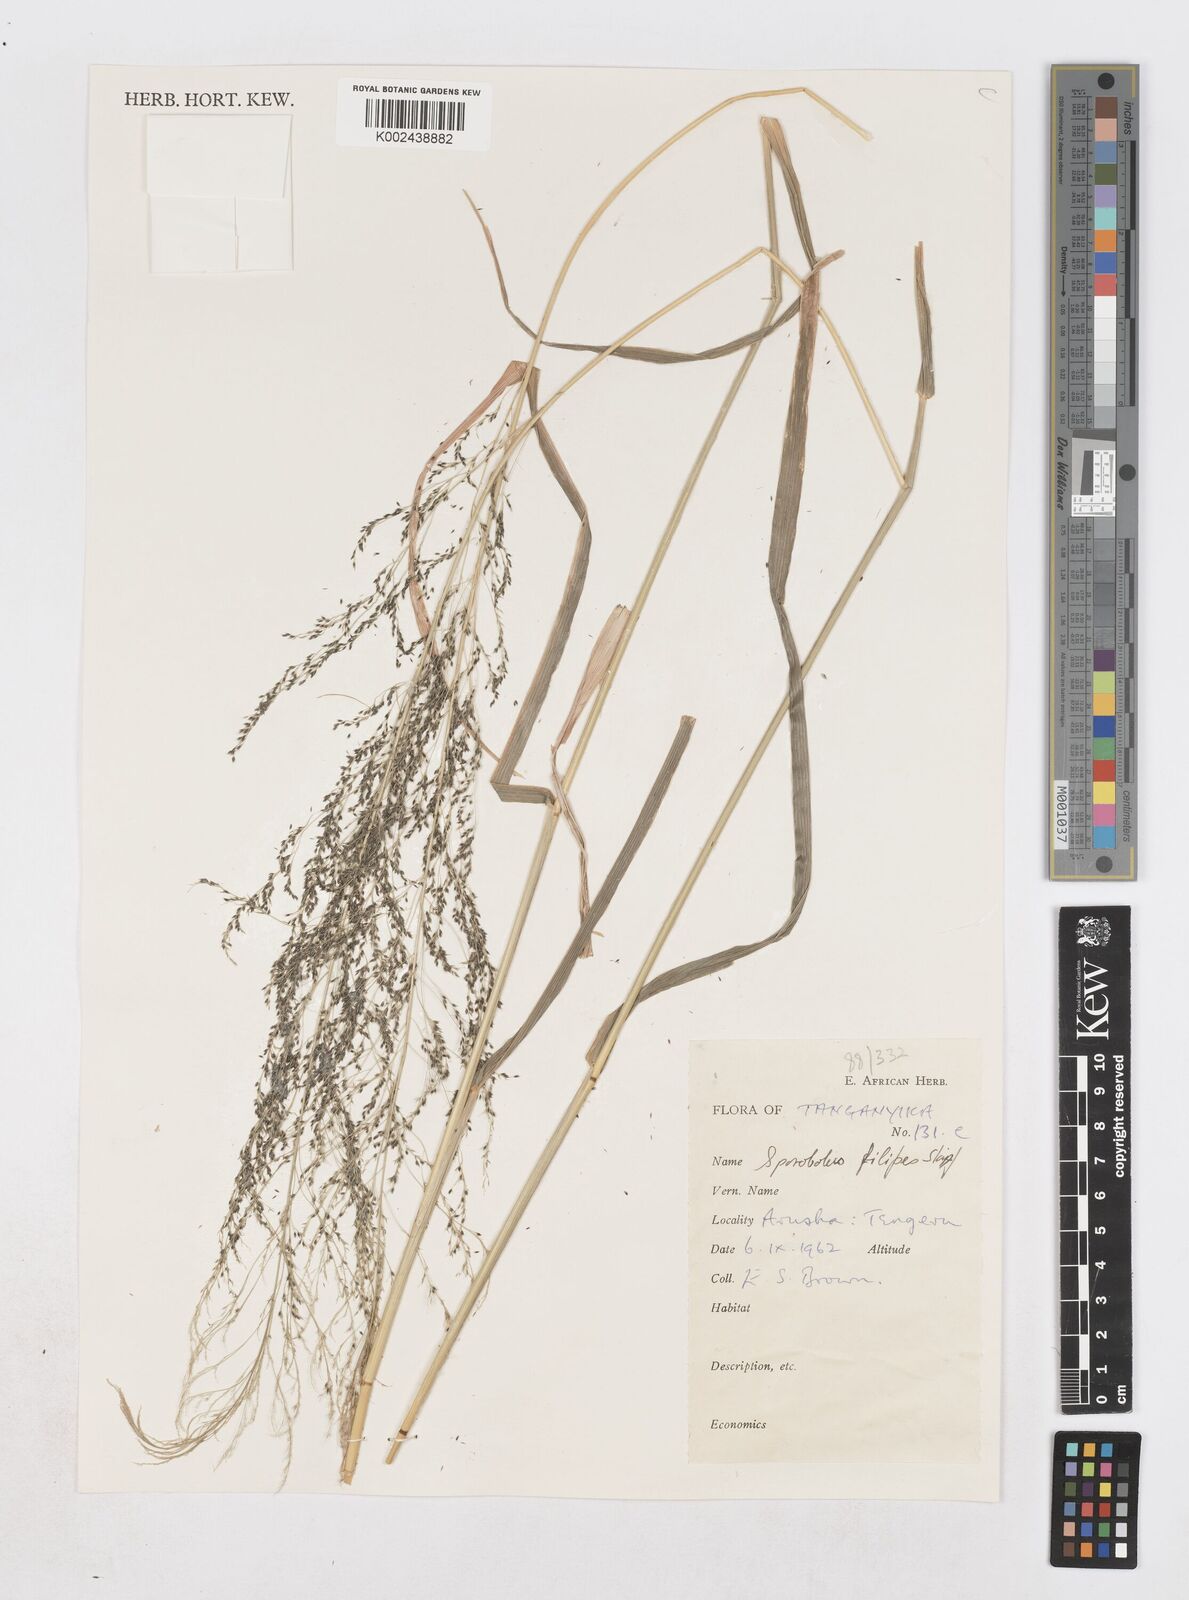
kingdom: Plantae
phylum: Tracheophyta
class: Liliopsida
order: Poales
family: Poaceae
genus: Sporobolus
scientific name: Sporobolus agrostoides
